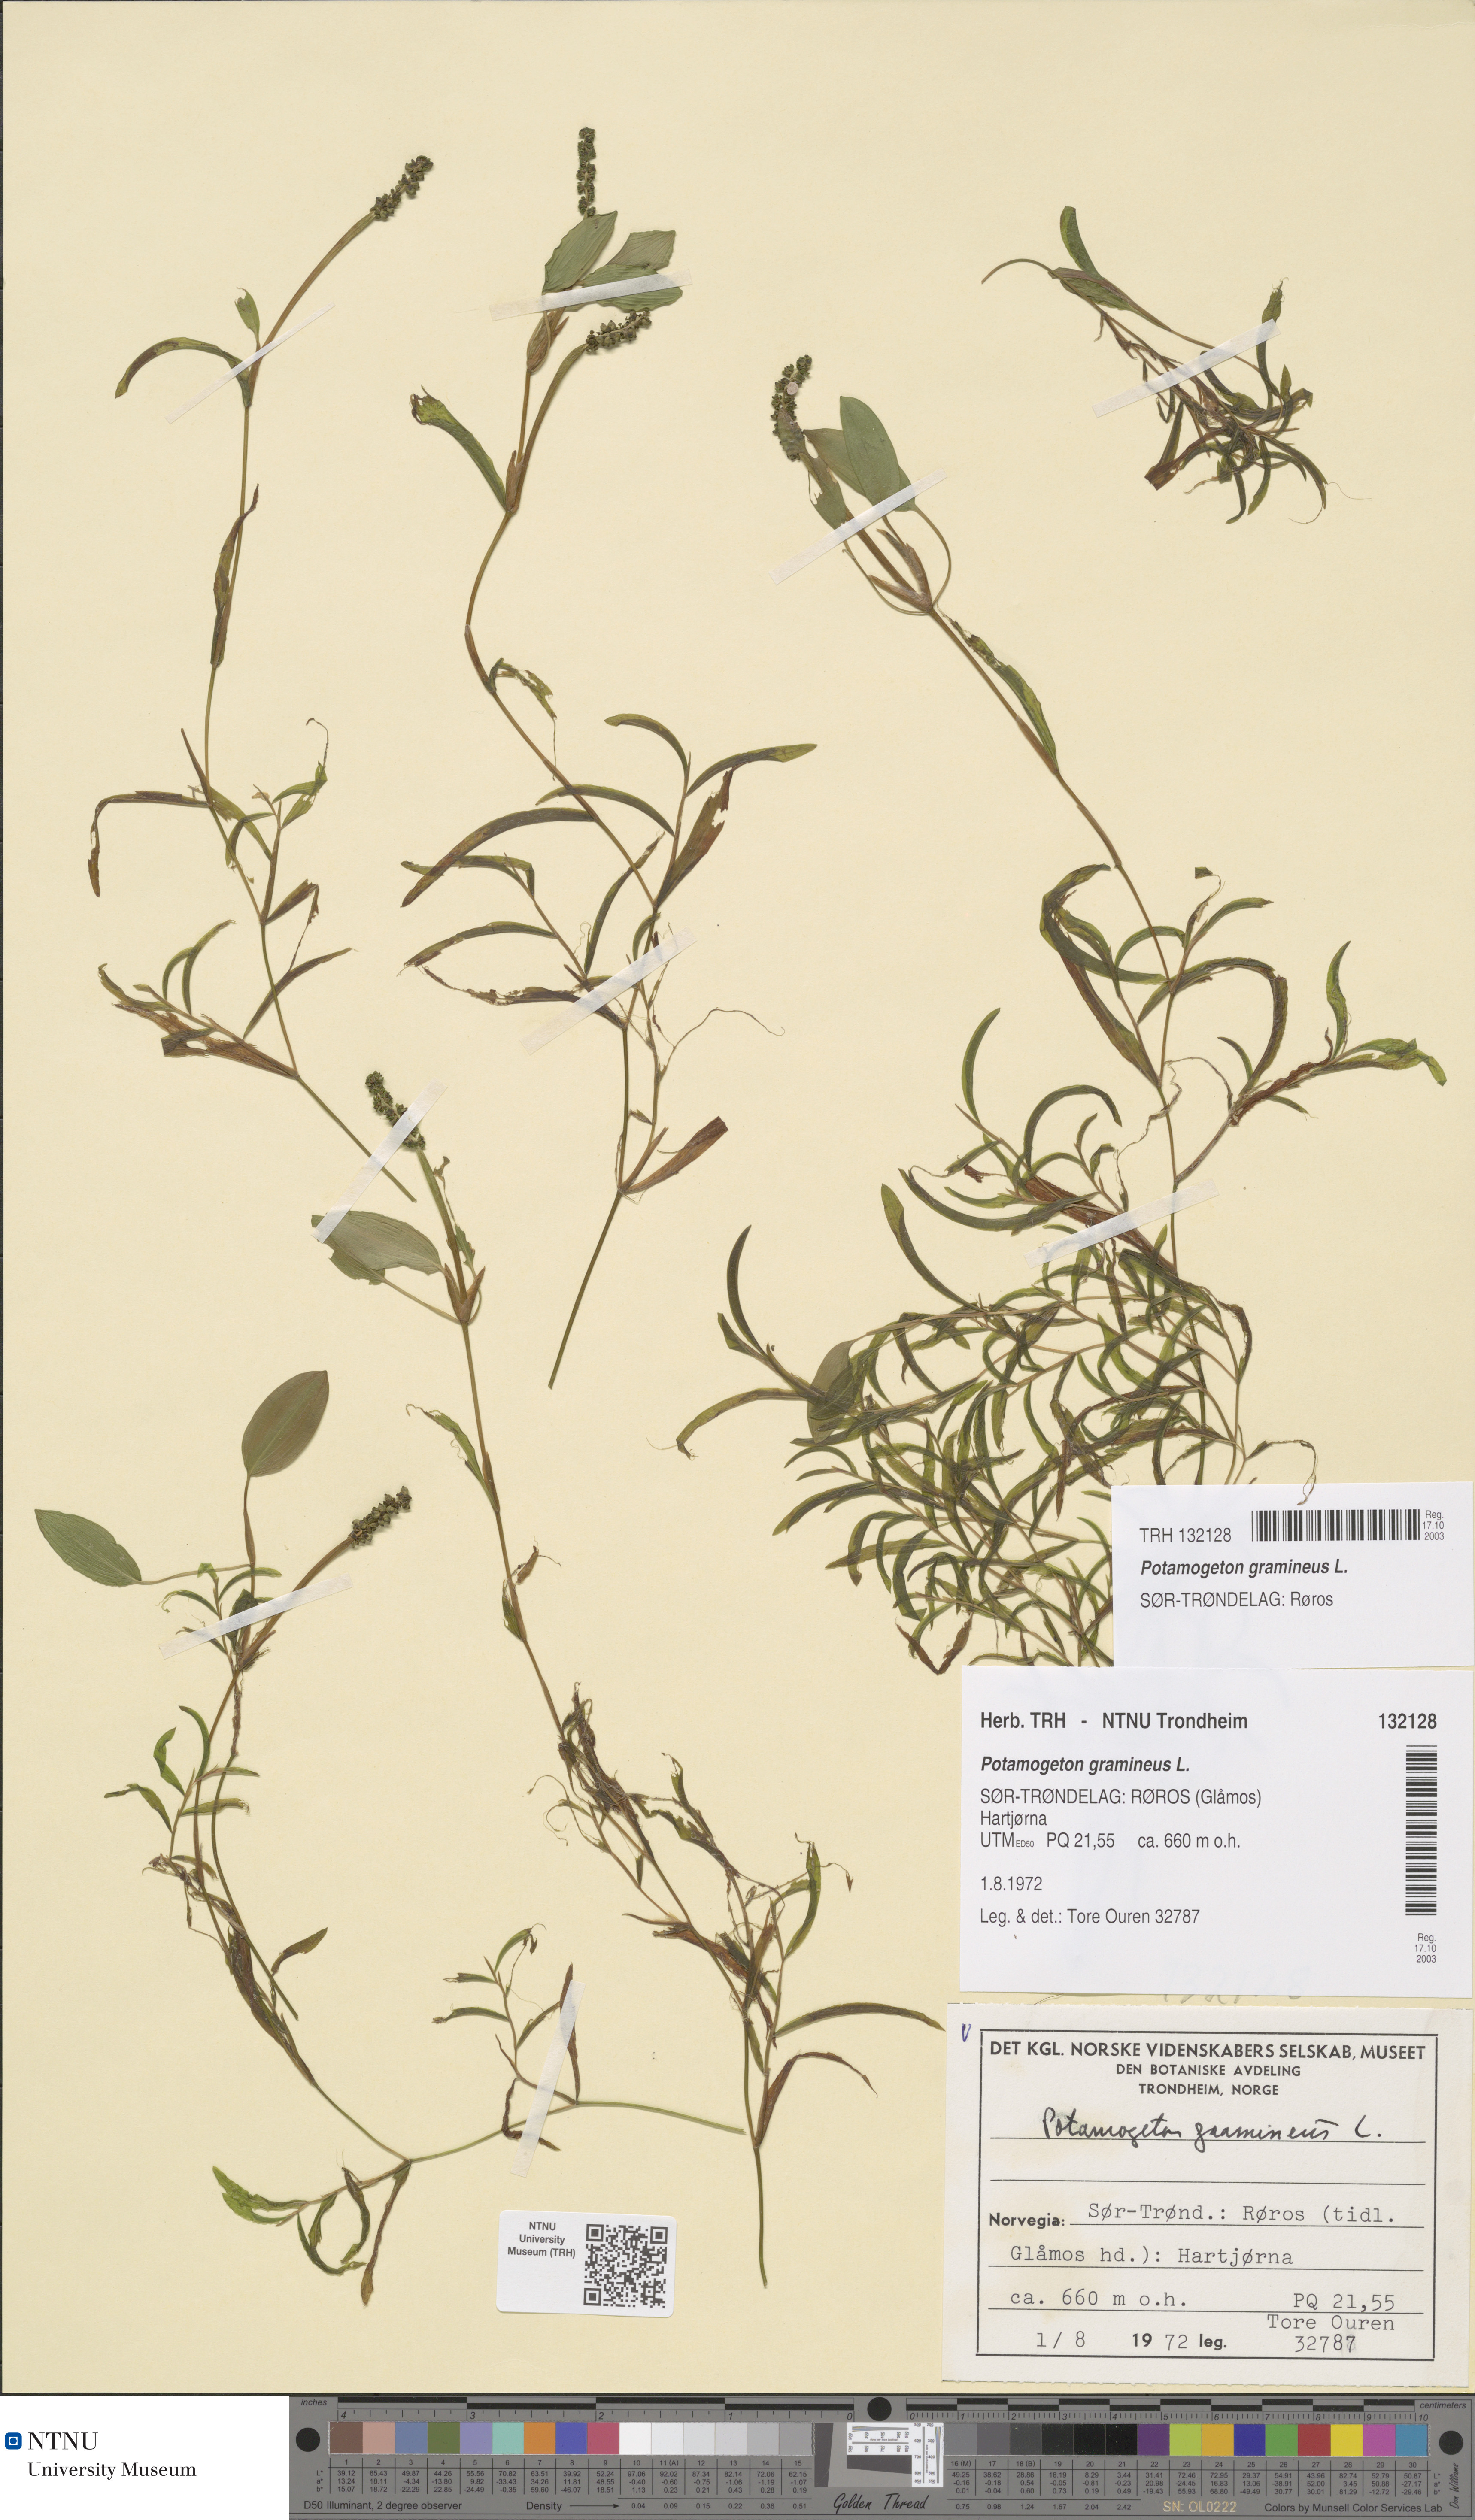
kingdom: Plantae
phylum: Tracheophyta
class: Liliopsida
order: Alismatales
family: Potamogetonaceae
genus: Potamogeton
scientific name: Potamogeton gramineus
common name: Various-leaved pondweed
